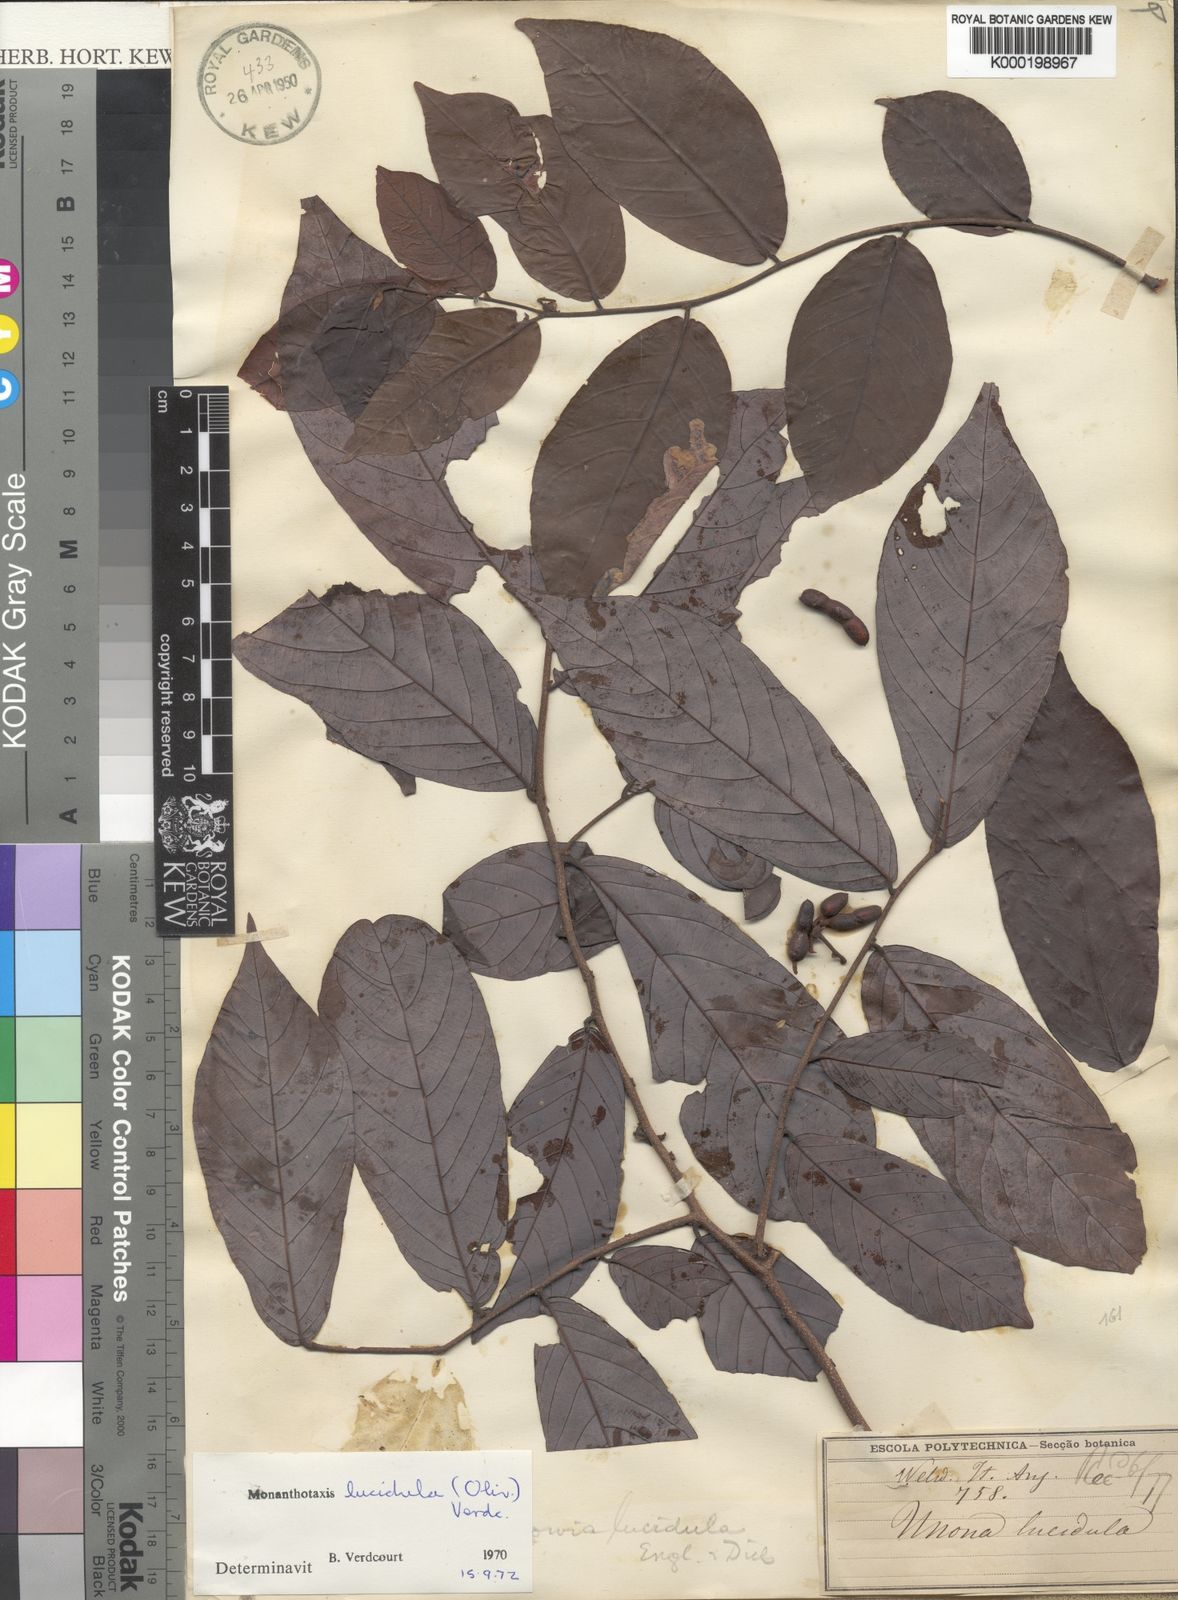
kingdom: Plantae
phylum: Tracheophyta
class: Magnoliopsida
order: Magnoliales
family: Annonaceae
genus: Monanthotaxis
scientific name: Monanthotaxis lucidula
